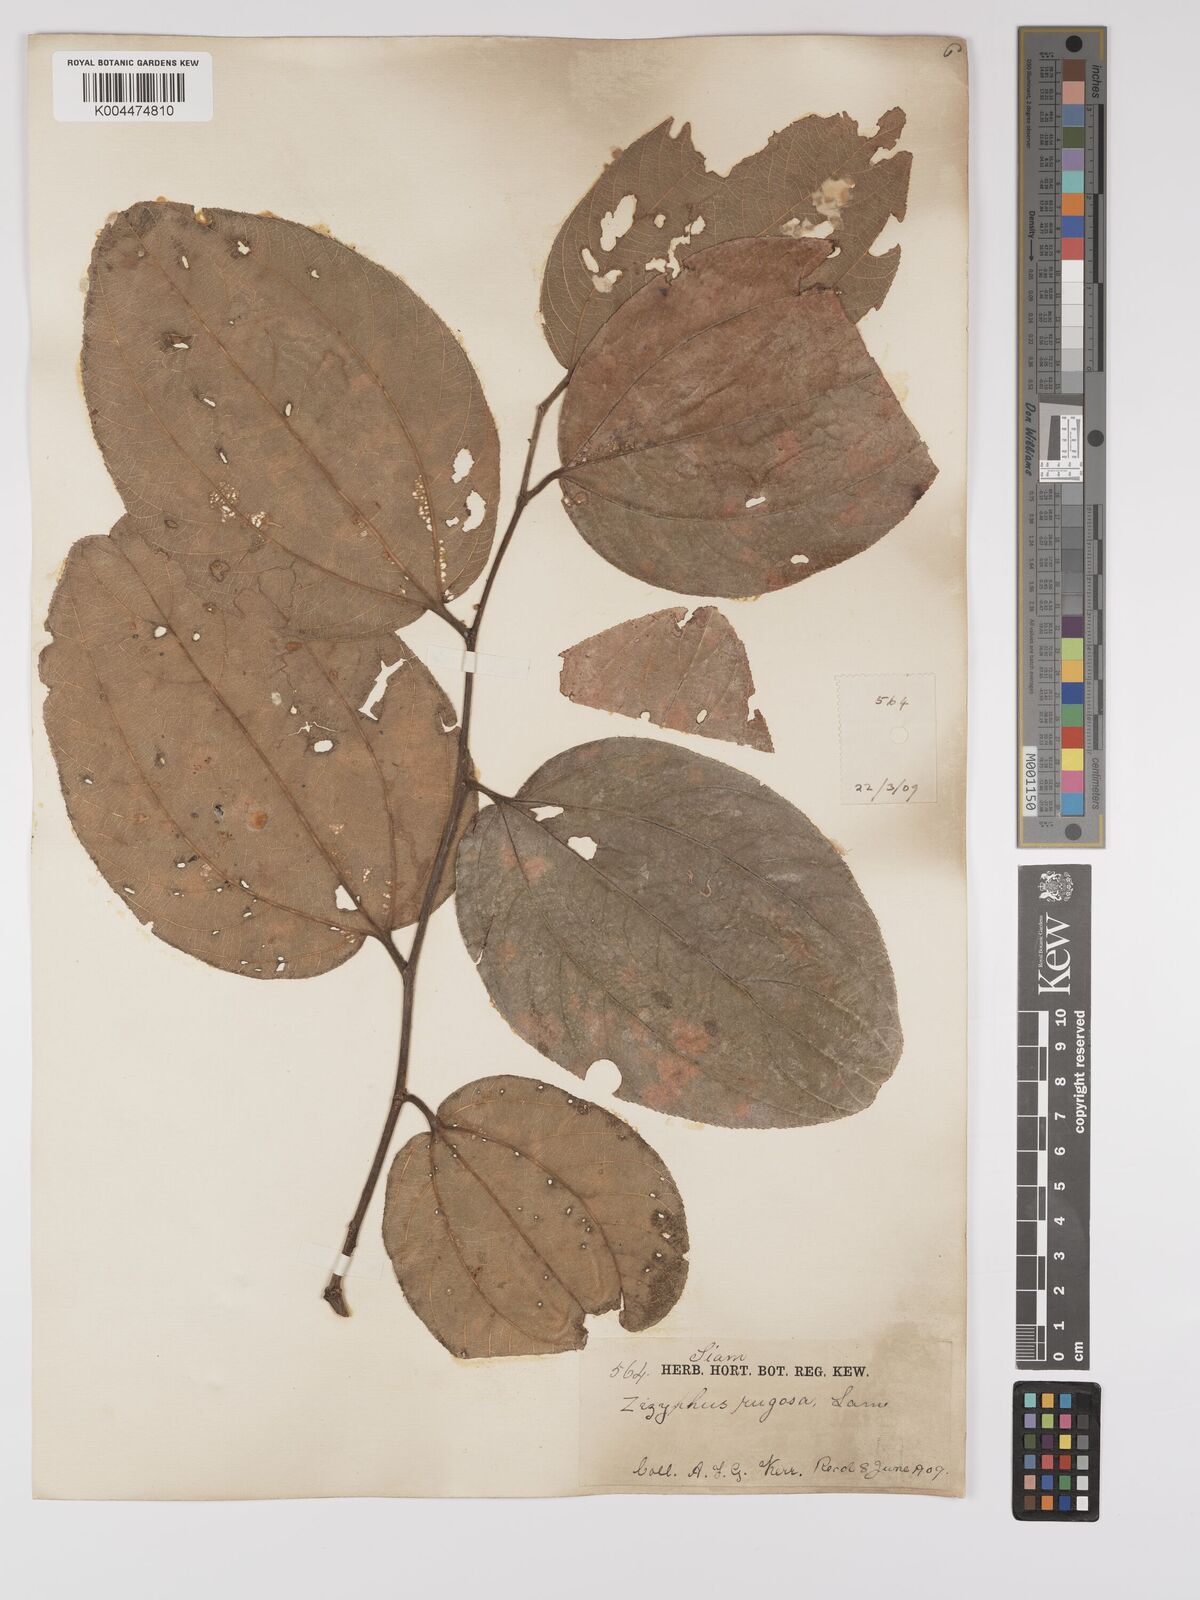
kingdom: Plantae
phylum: Tracheophyta
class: Magnoliopsida
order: Rosales
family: Rhamnaceae
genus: Ziziphus
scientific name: Ziziphus rugosa
